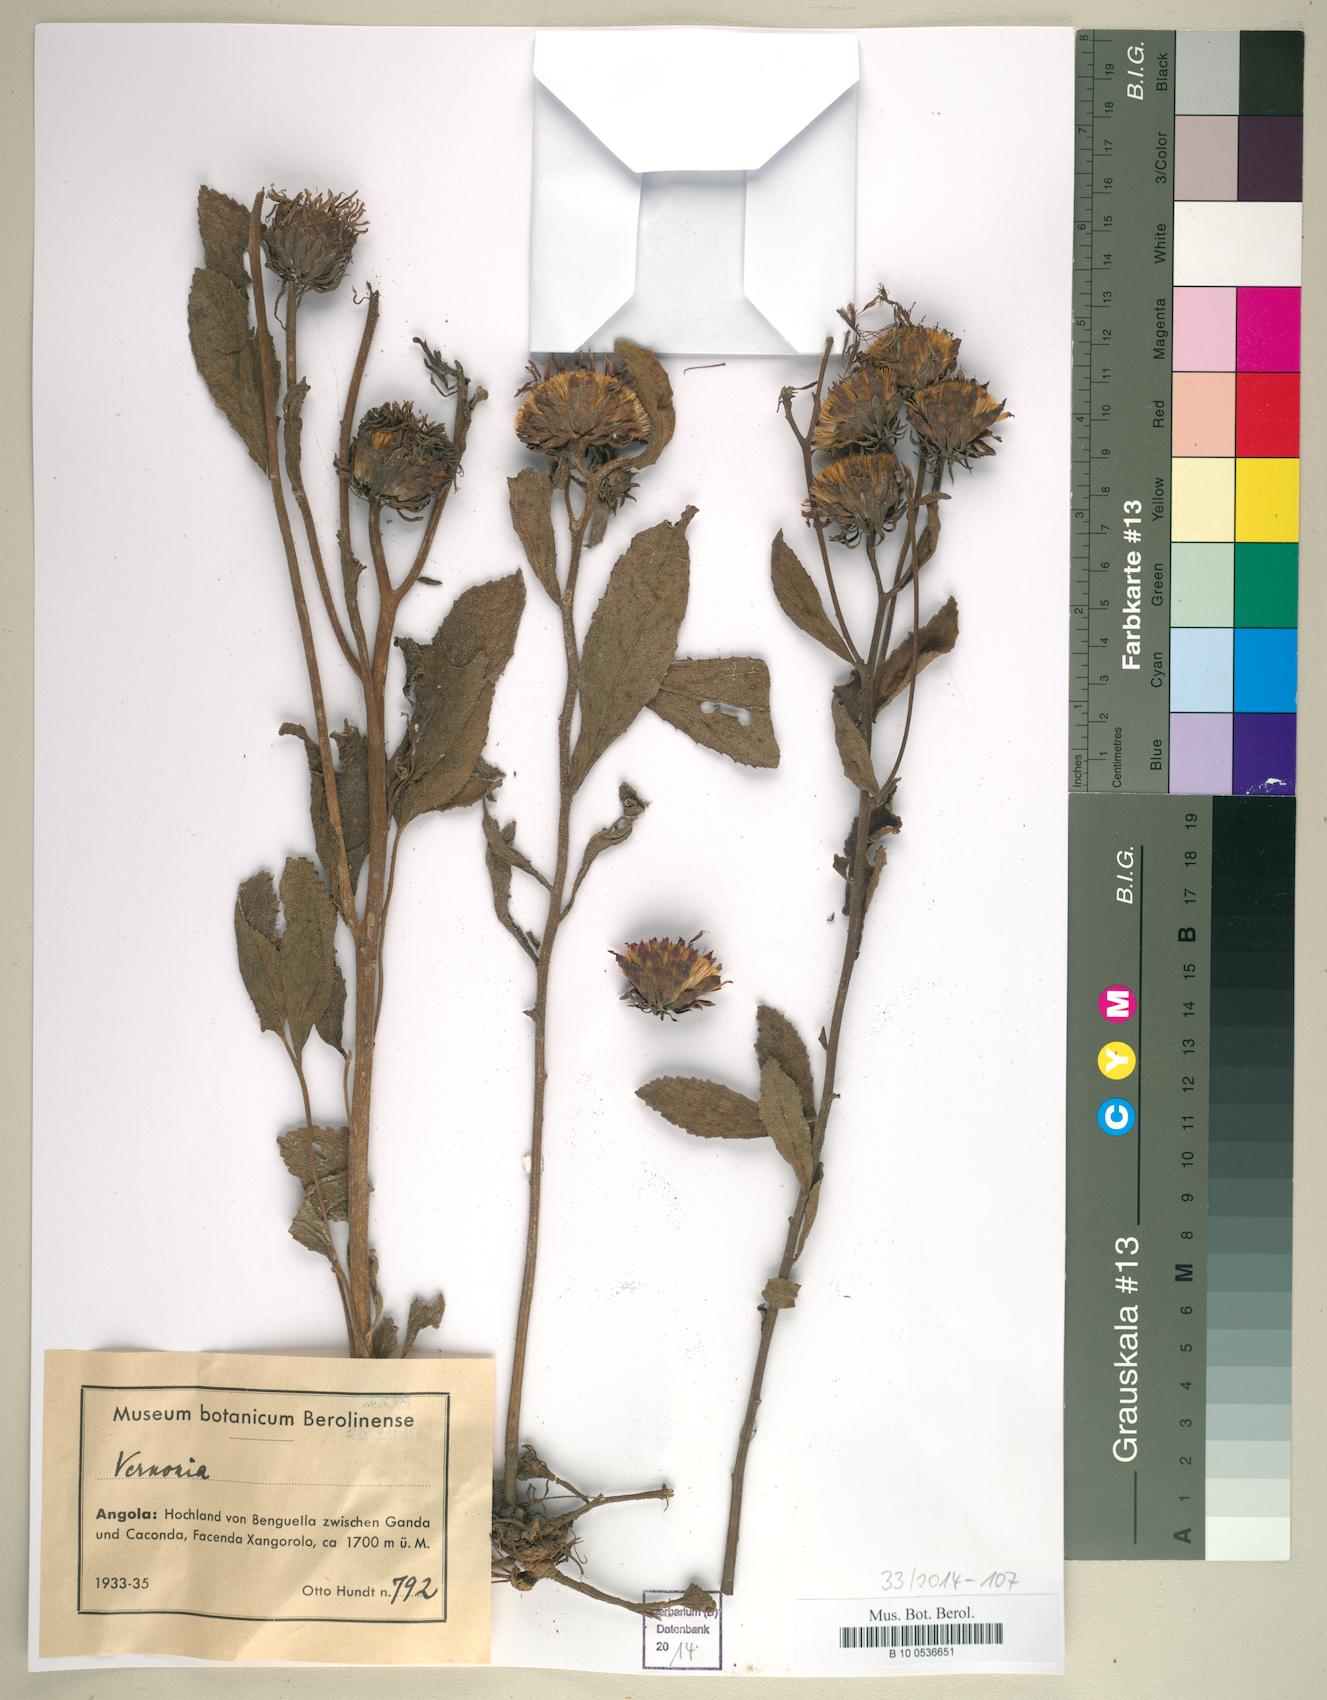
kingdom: Plantae
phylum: Tracheophyta
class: Magnoliopsida
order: Asterales
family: Asteraceae
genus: Vernonia
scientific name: Vernonia
